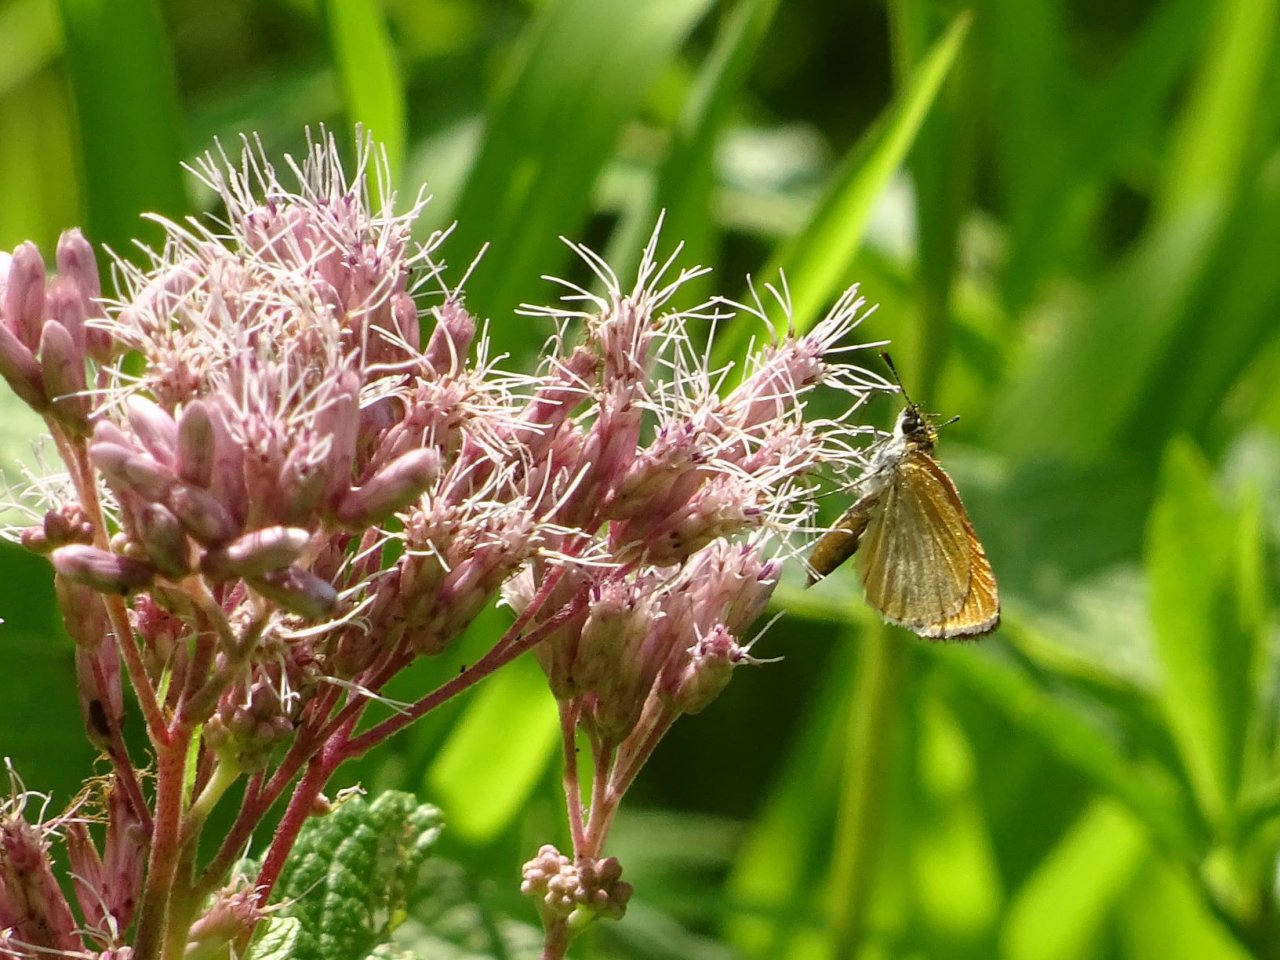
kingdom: Animalia
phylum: Arthropoda
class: Insecta
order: Lepidoptera
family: Hesperiidae
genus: Ancyloxypha
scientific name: Ancyloxypha numitor
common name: Least Skipper
